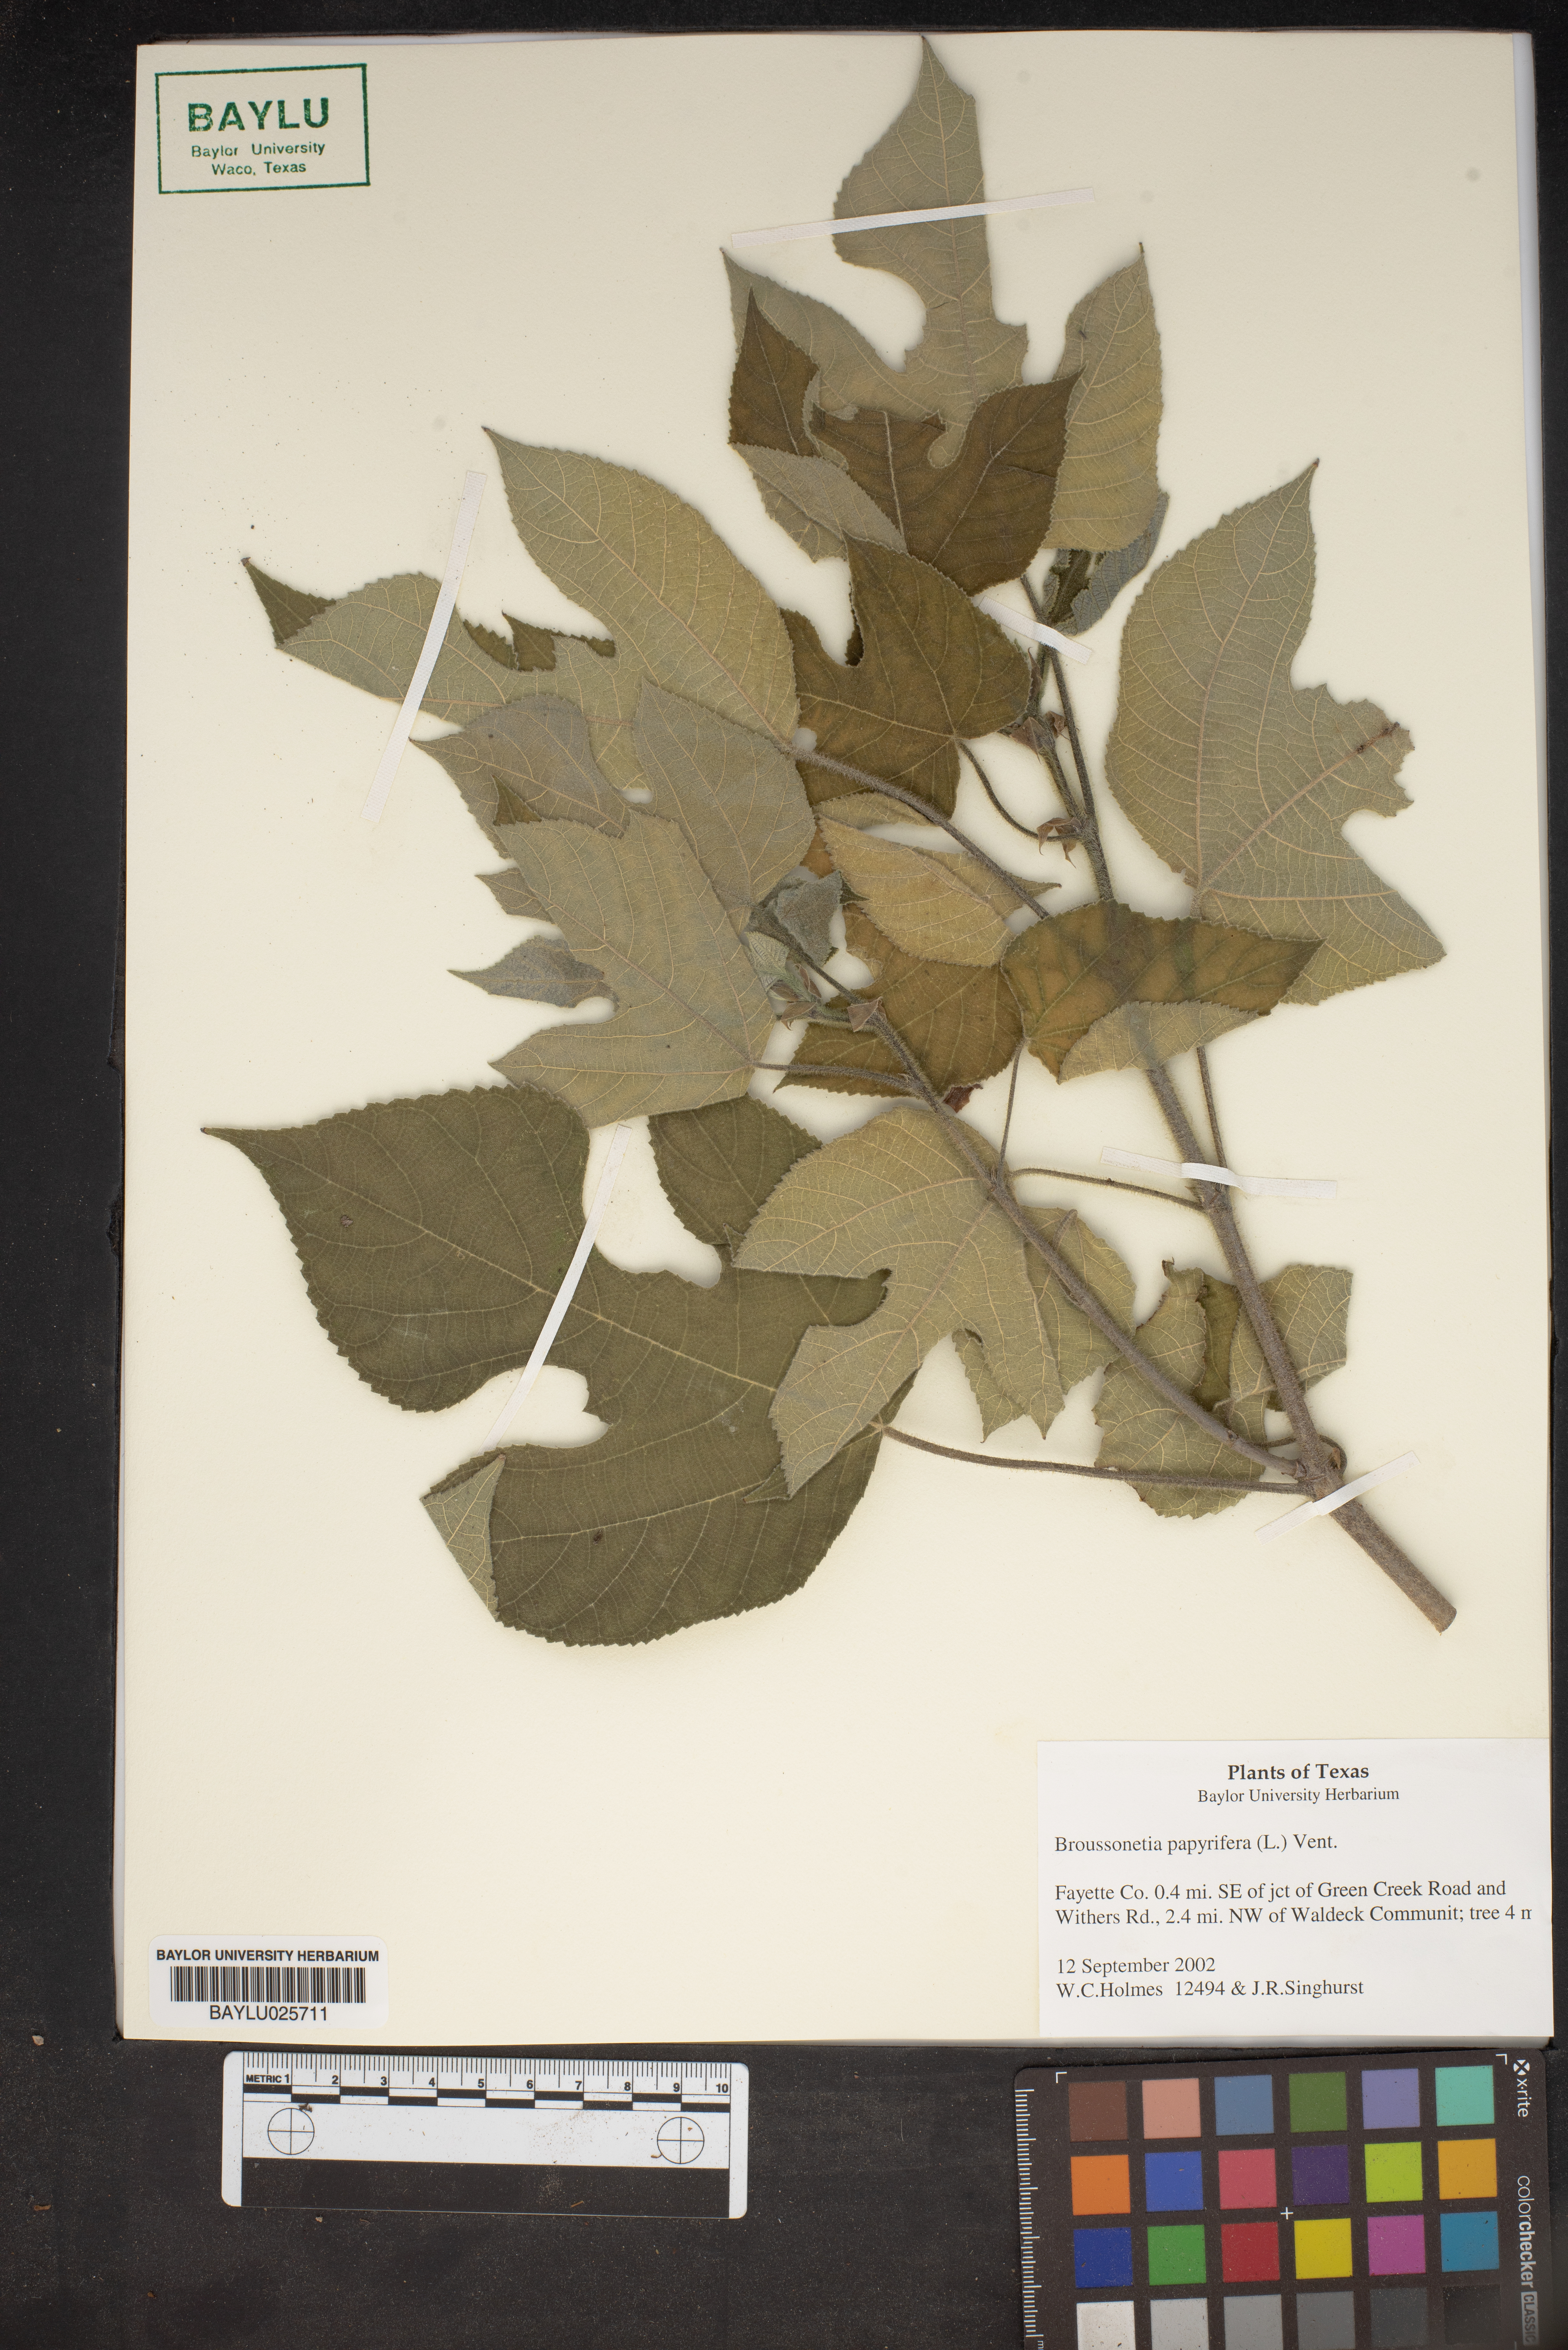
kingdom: Plantae
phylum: Tracheophyta
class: Magnoliopsida
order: Rosales
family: Moraceae
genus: Broussonetia
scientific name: Broussonetia papyrifera
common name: Paper mulberry
